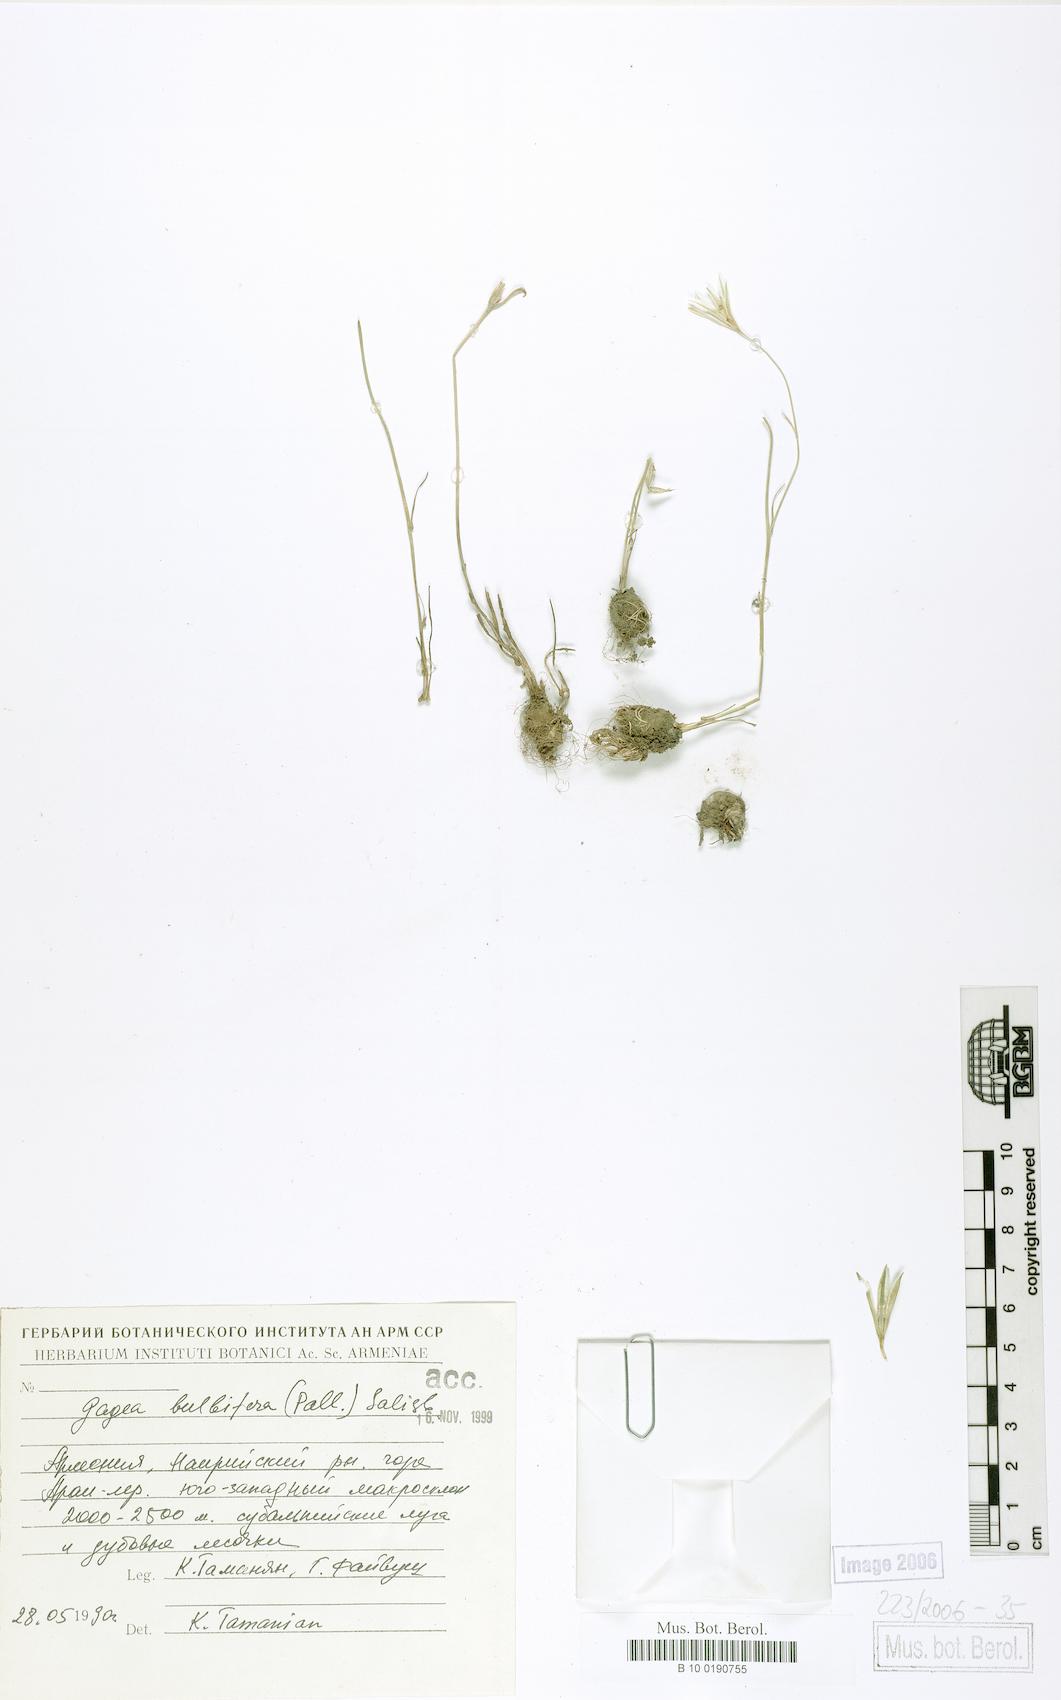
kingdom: Plantae
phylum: Tracheophyta
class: Liliopsida
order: Liliales
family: Liliaceae
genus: Gagea
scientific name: Gagea bulbifera
